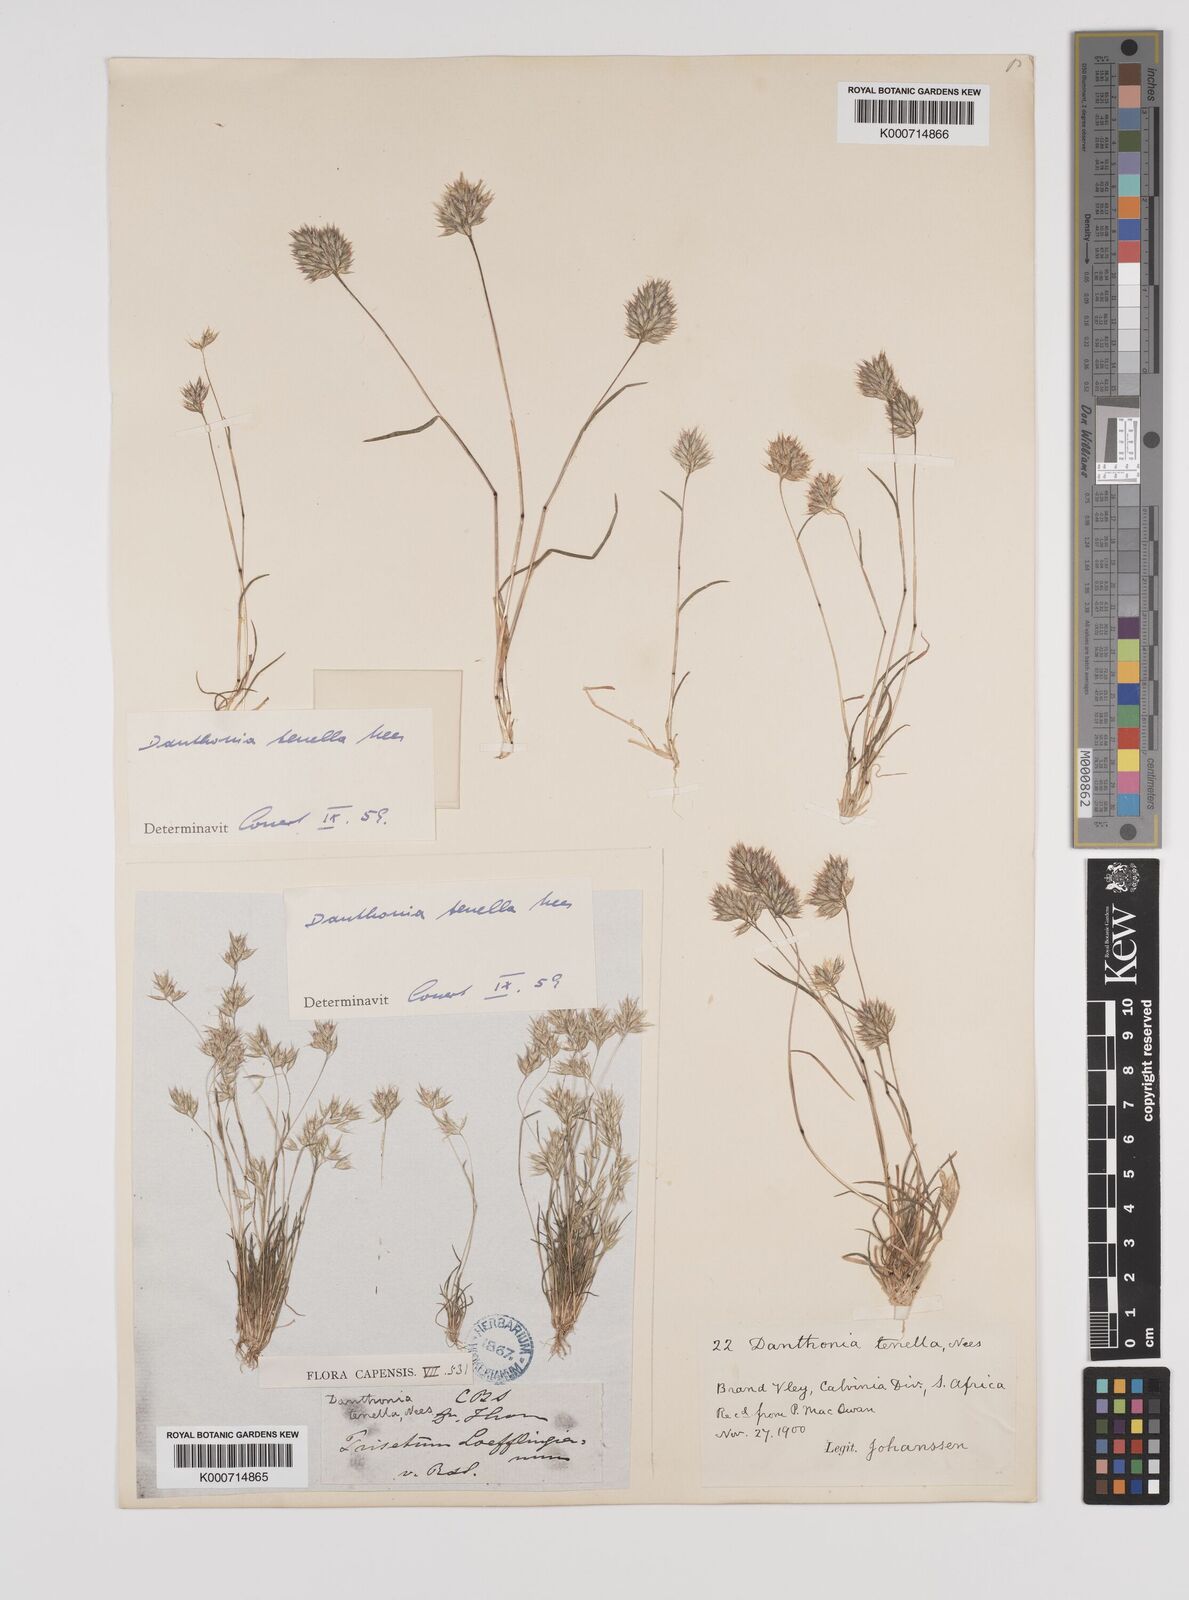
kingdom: Plantae
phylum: Tracheophyta
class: Liliopsida
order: Poales
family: Poaceae
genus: Rytidosperma
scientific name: Rytidosperma
